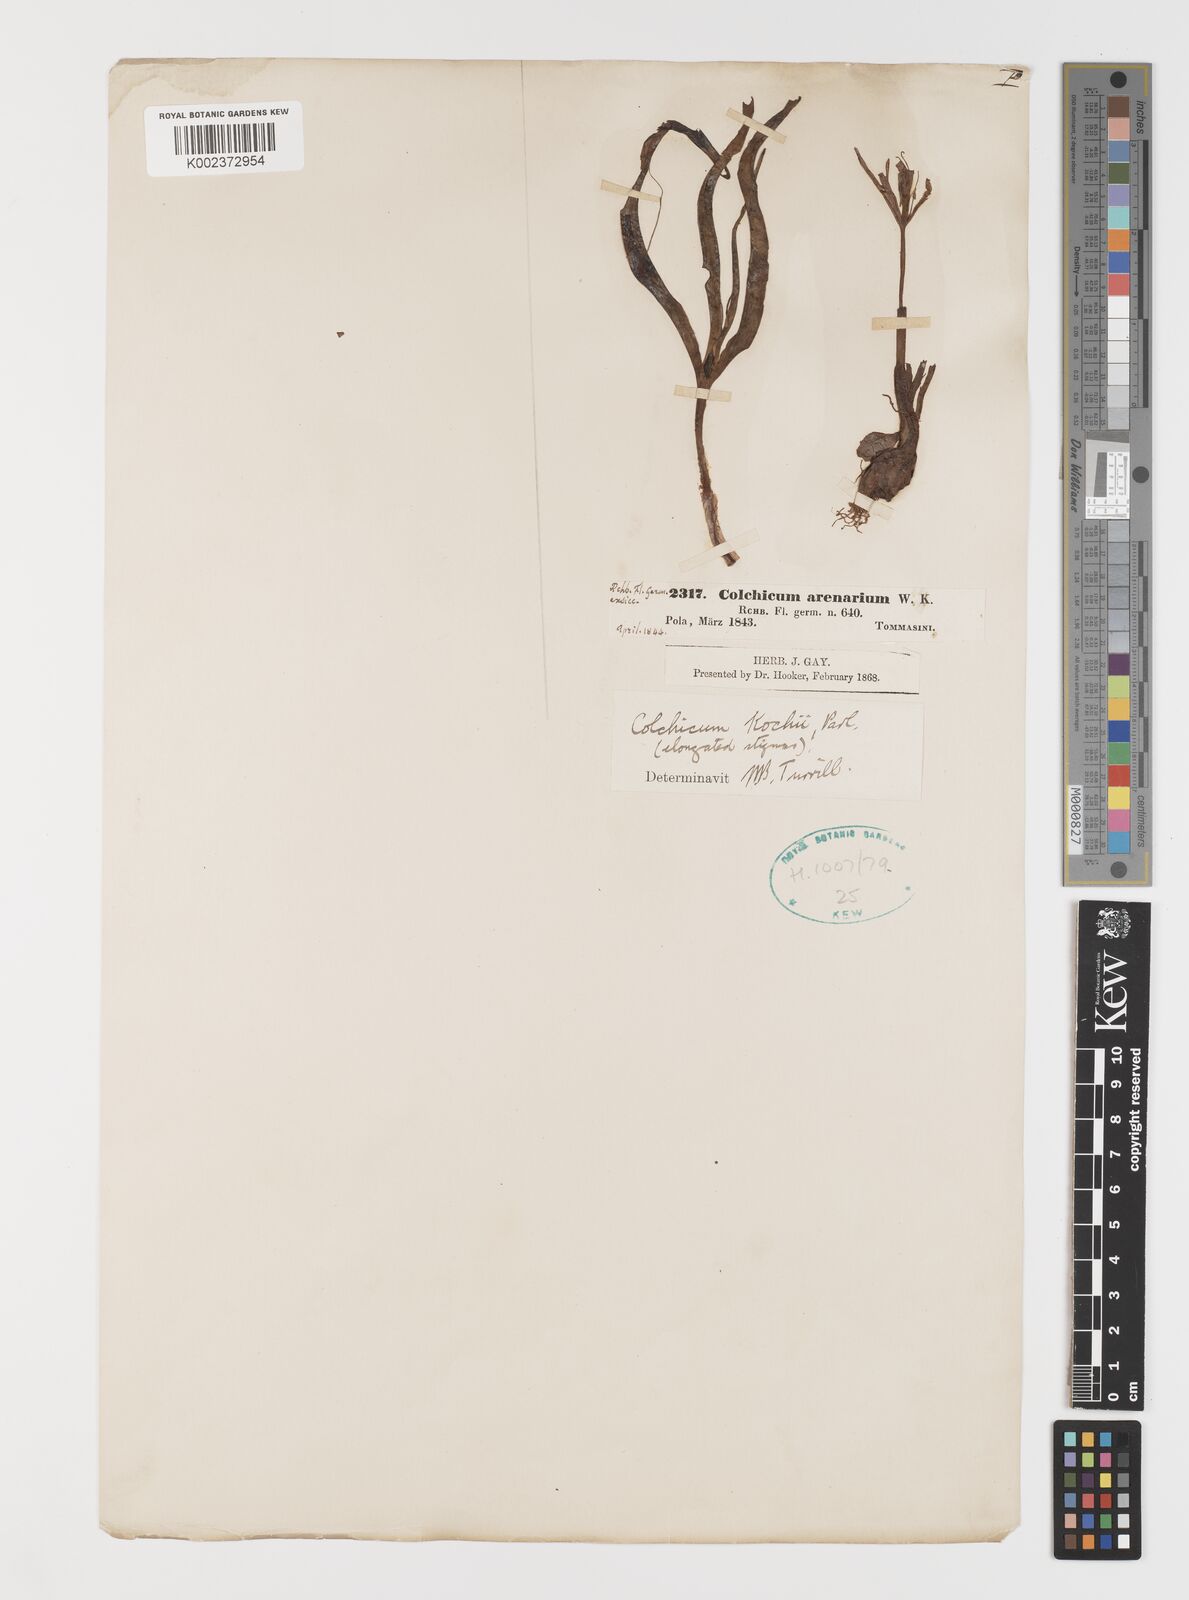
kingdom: Plantae
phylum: Tracheophyta
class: Liliopsida
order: Liliales
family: Colchicaceae
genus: Colchicum
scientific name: Colchicum arenarium
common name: Sand saffron
